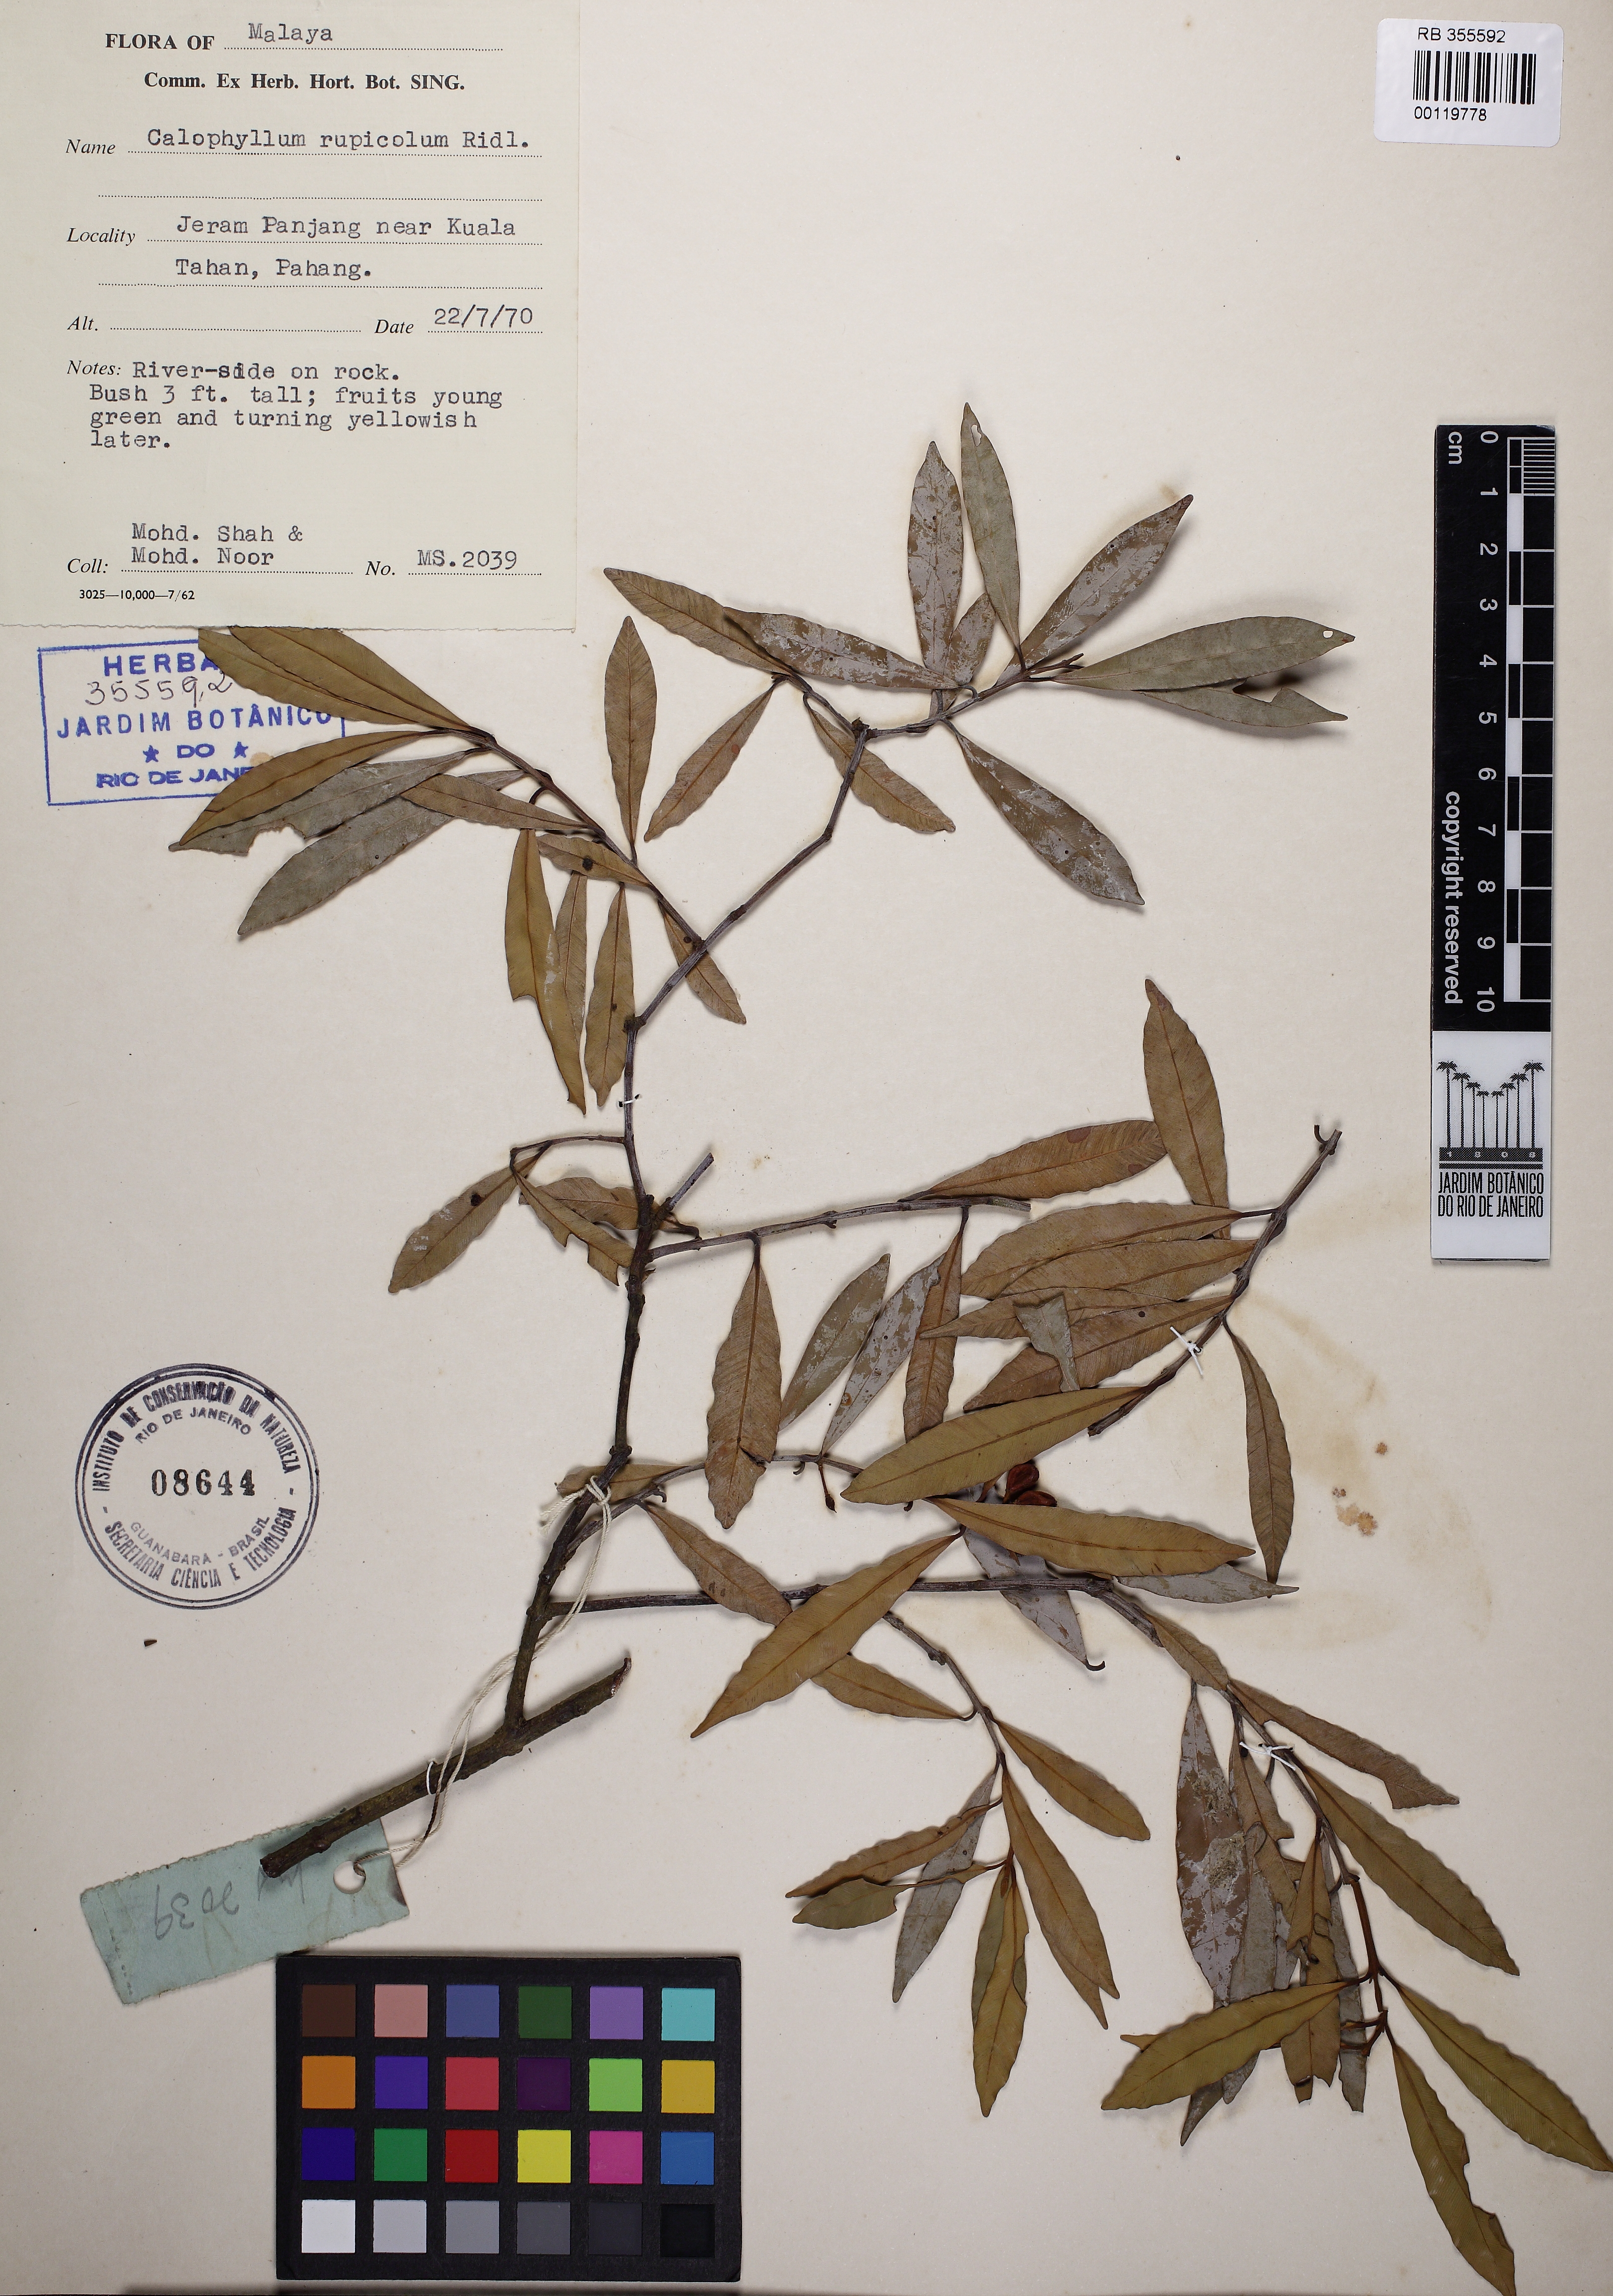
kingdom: Plantae
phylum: Tracheophyta
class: Magnoliopsida
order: Malpighiales
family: Calophyllaceae
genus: Calophyllum
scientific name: Calophyllum rupicola
